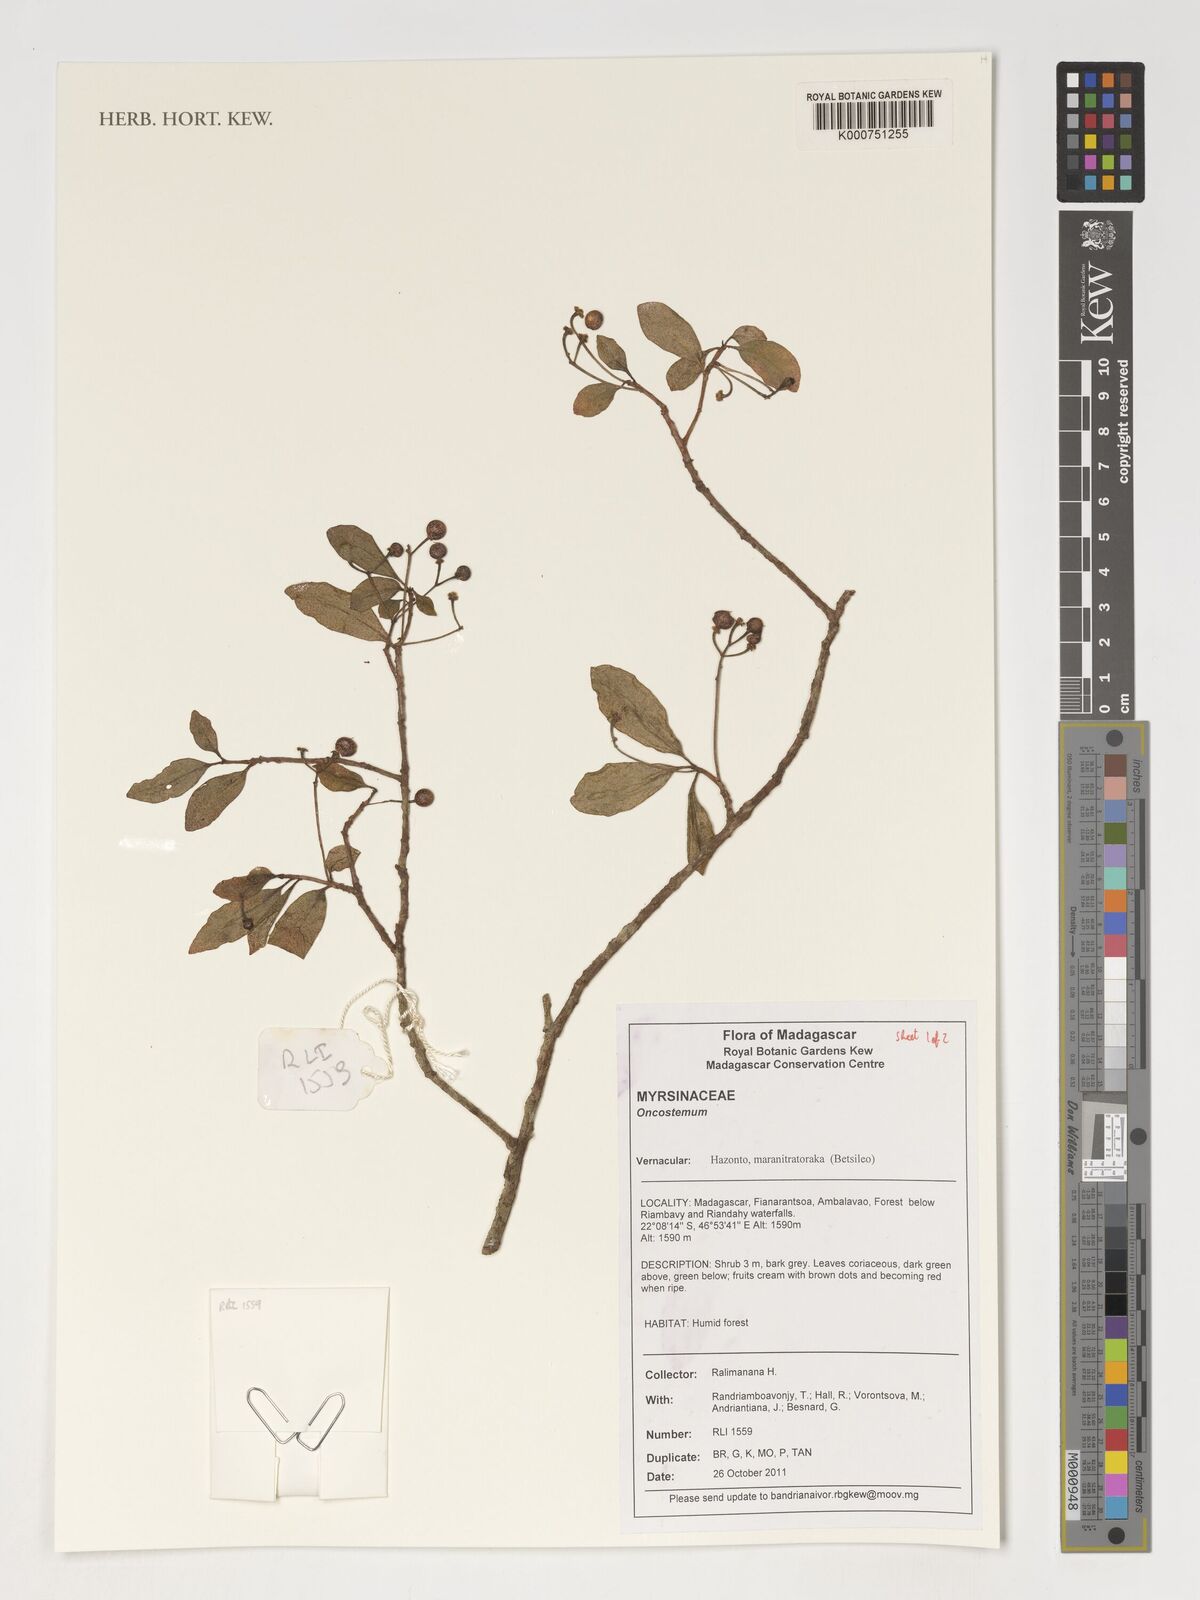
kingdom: Plantae
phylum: Tracheophyta
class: Magnoliopsida
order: Ericales
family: Primulaceae
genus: Oncostemum
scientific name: Oncostemum
